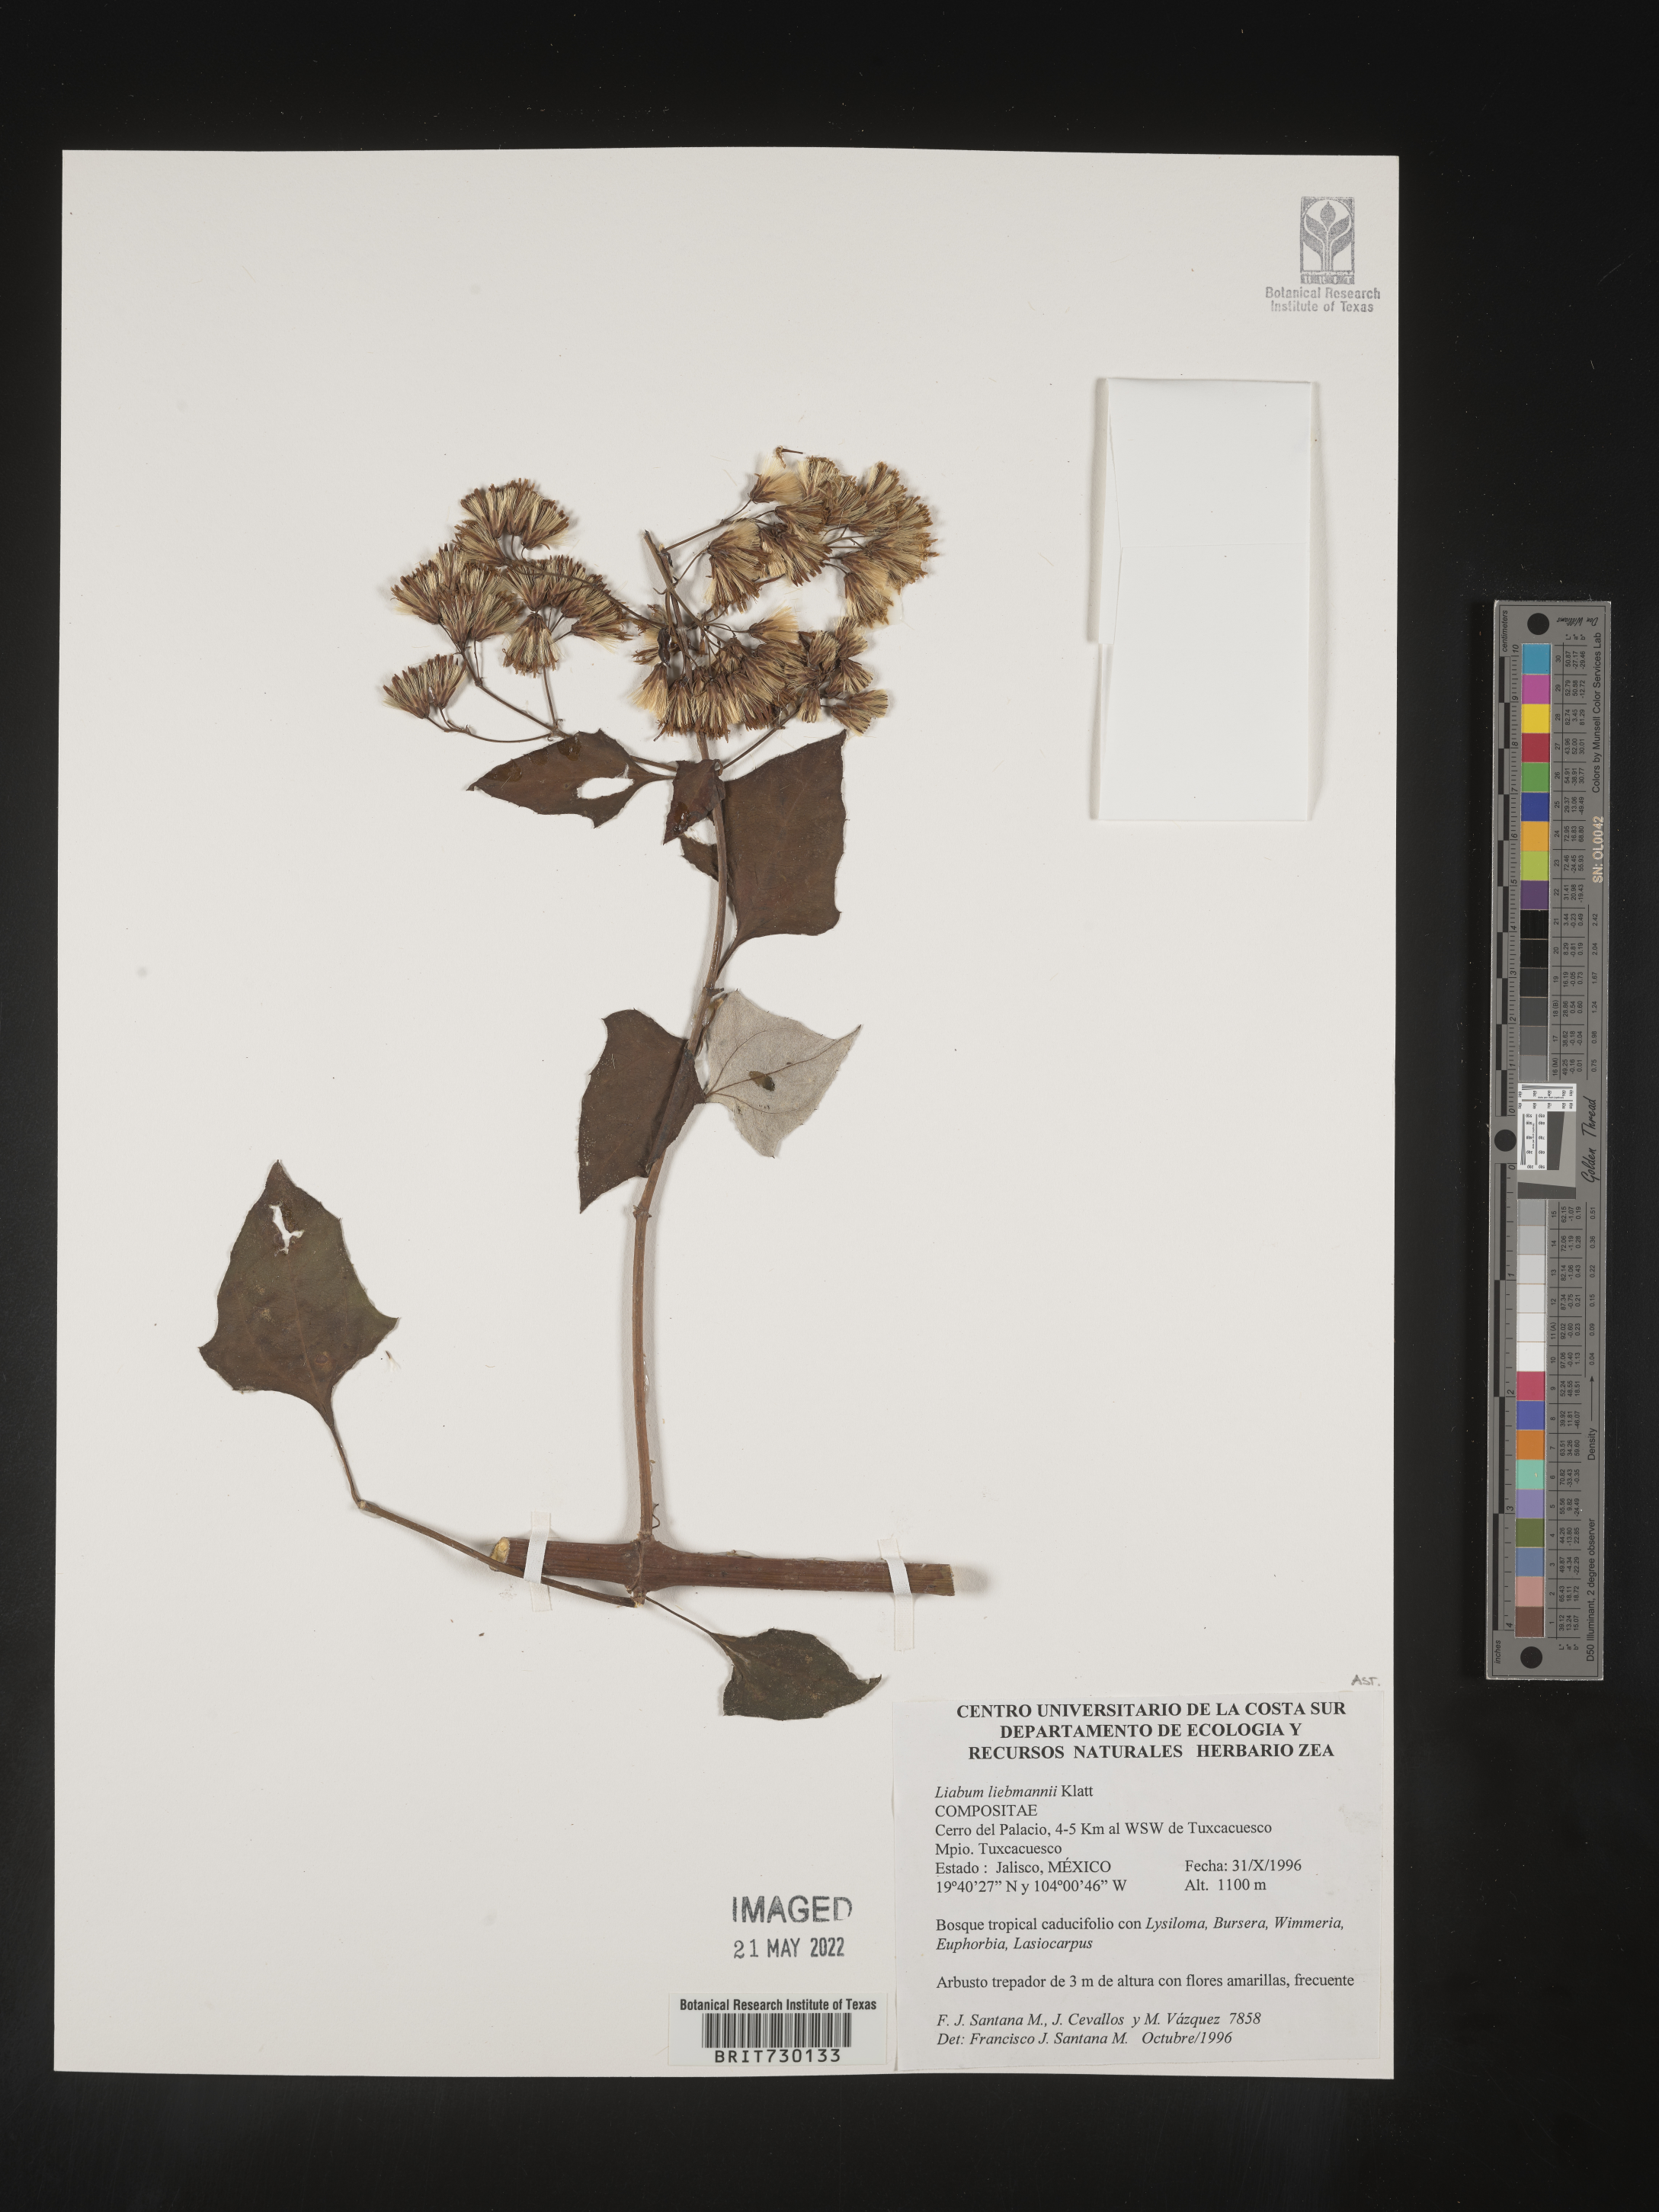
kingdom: Plantae
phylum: Tracheophyta
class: Magnoliopsida
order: Asterales
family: Asteraceae
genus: Liabum
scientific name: Liabum
